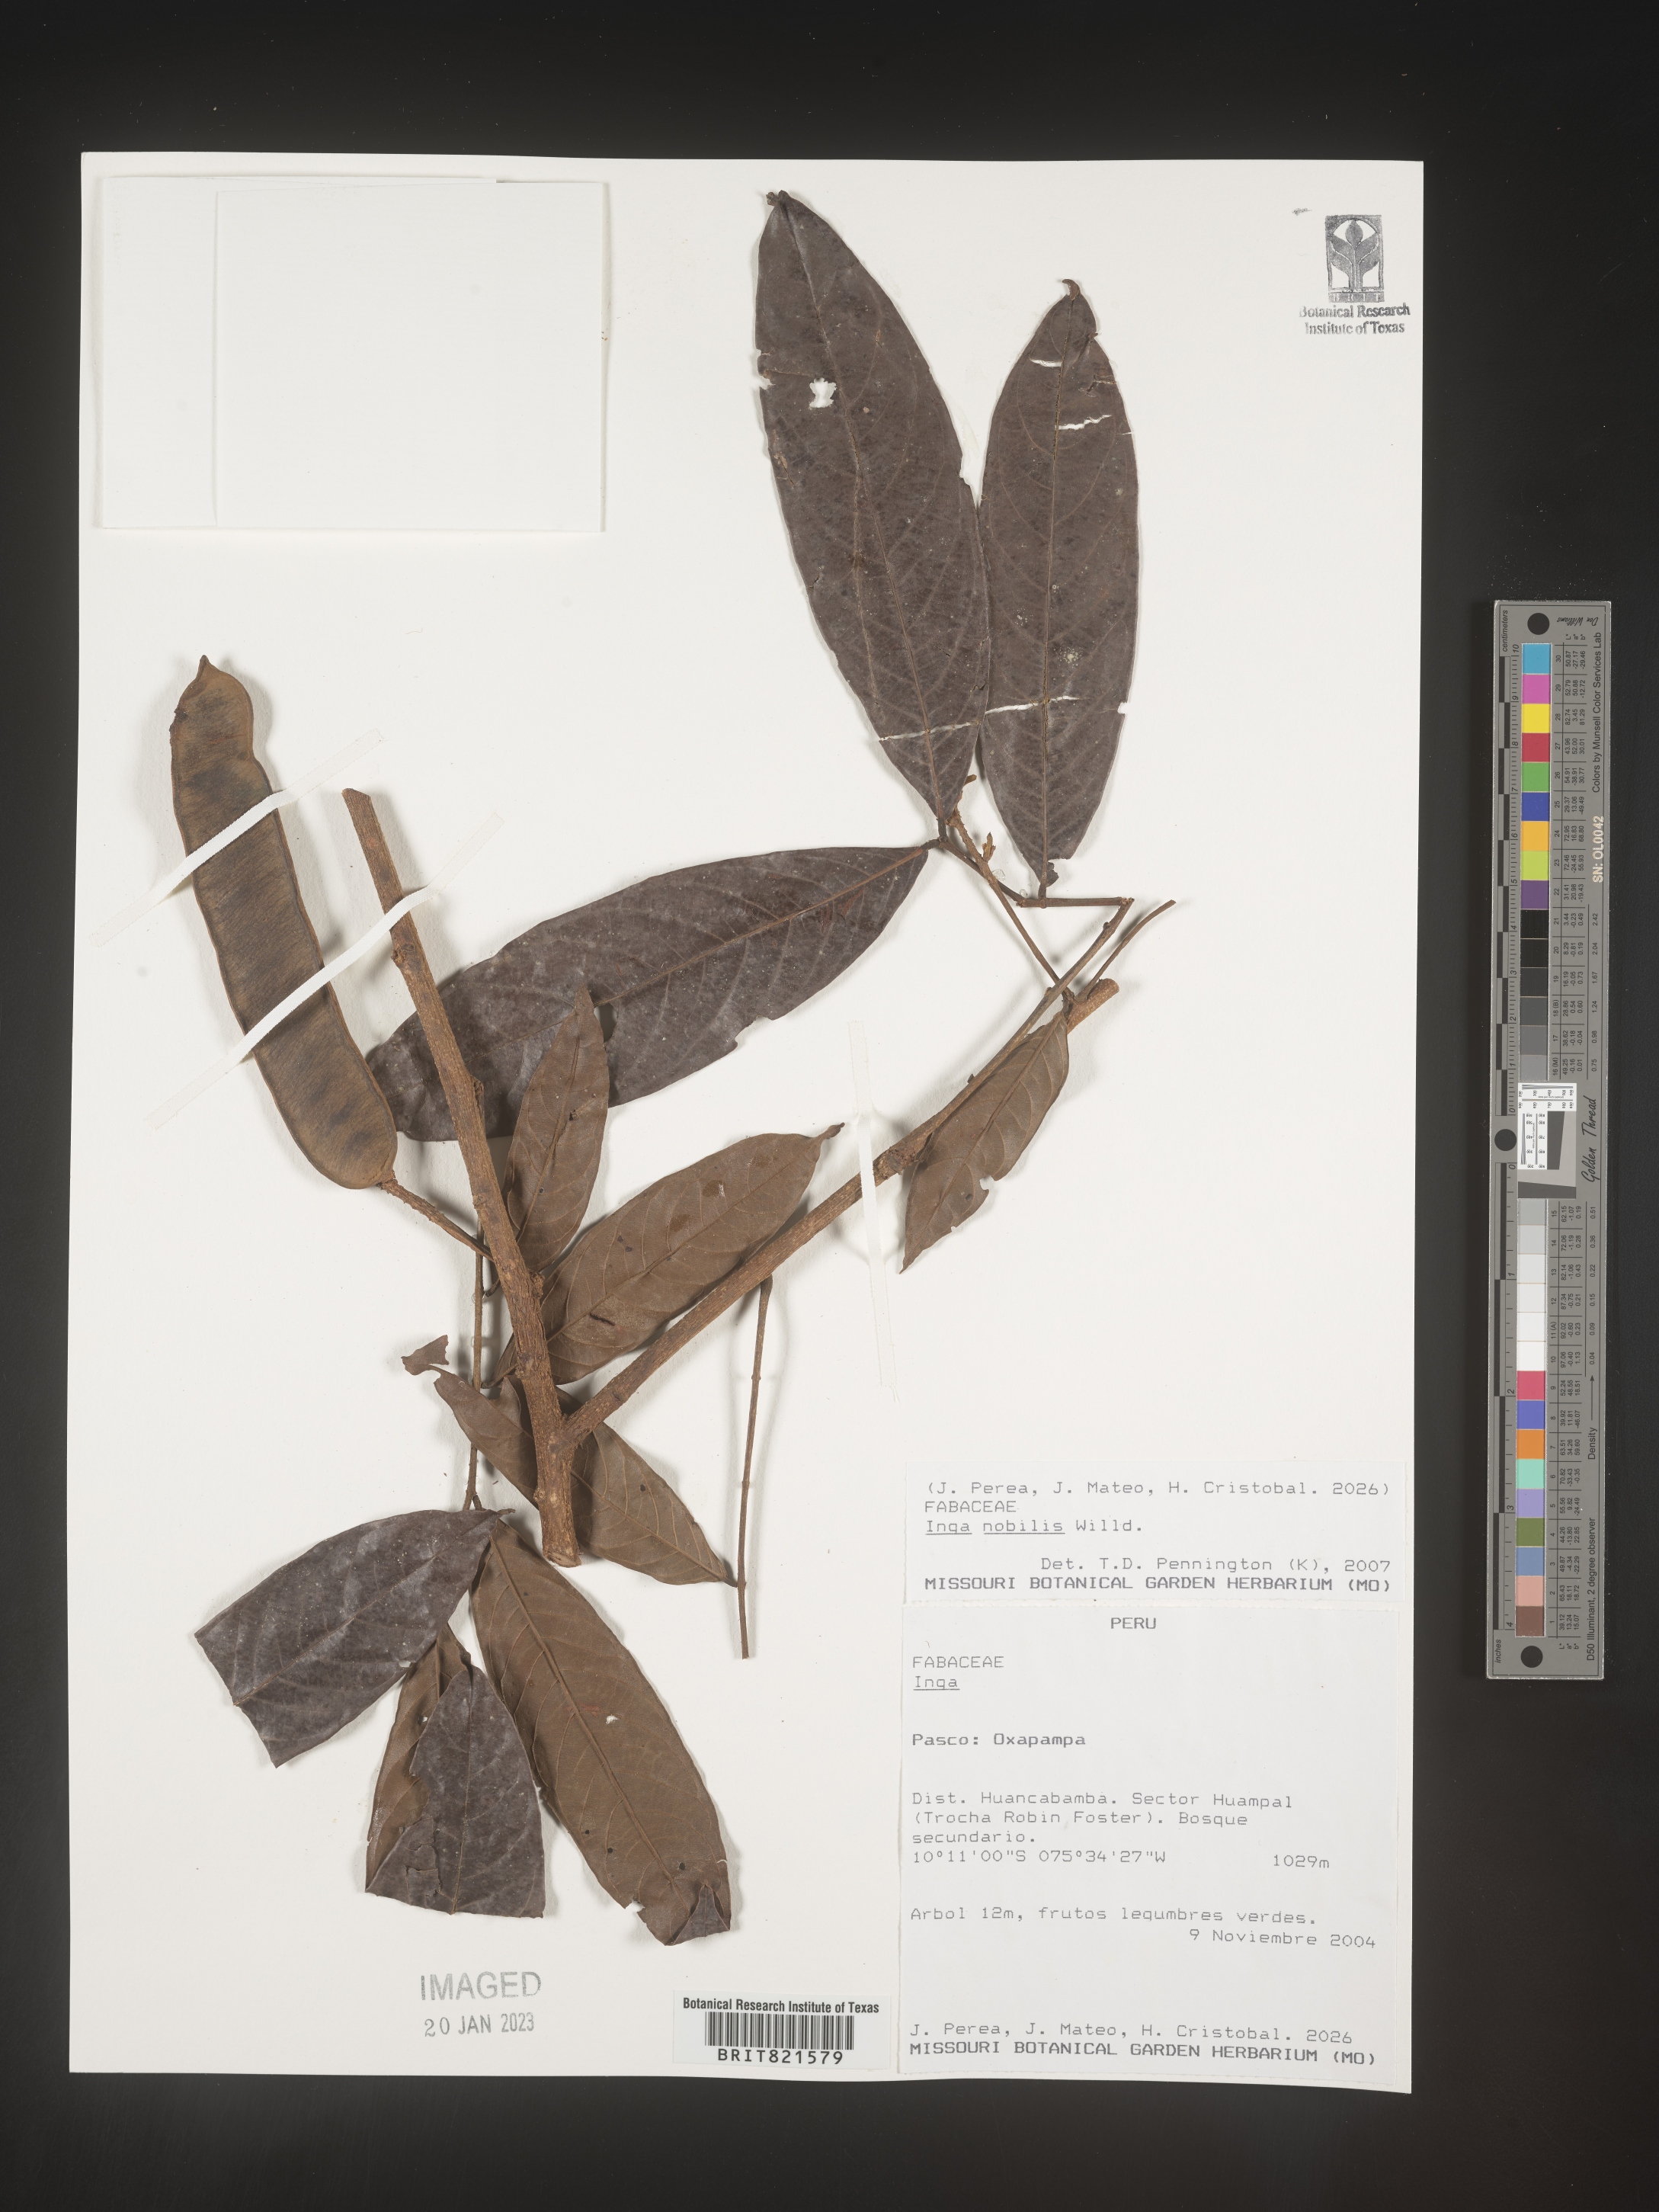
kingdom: Plantae
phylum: Tracheophyta
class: Magnoliopsida
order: Fabales
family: Fabaceae
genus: Inga
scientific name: Inga
